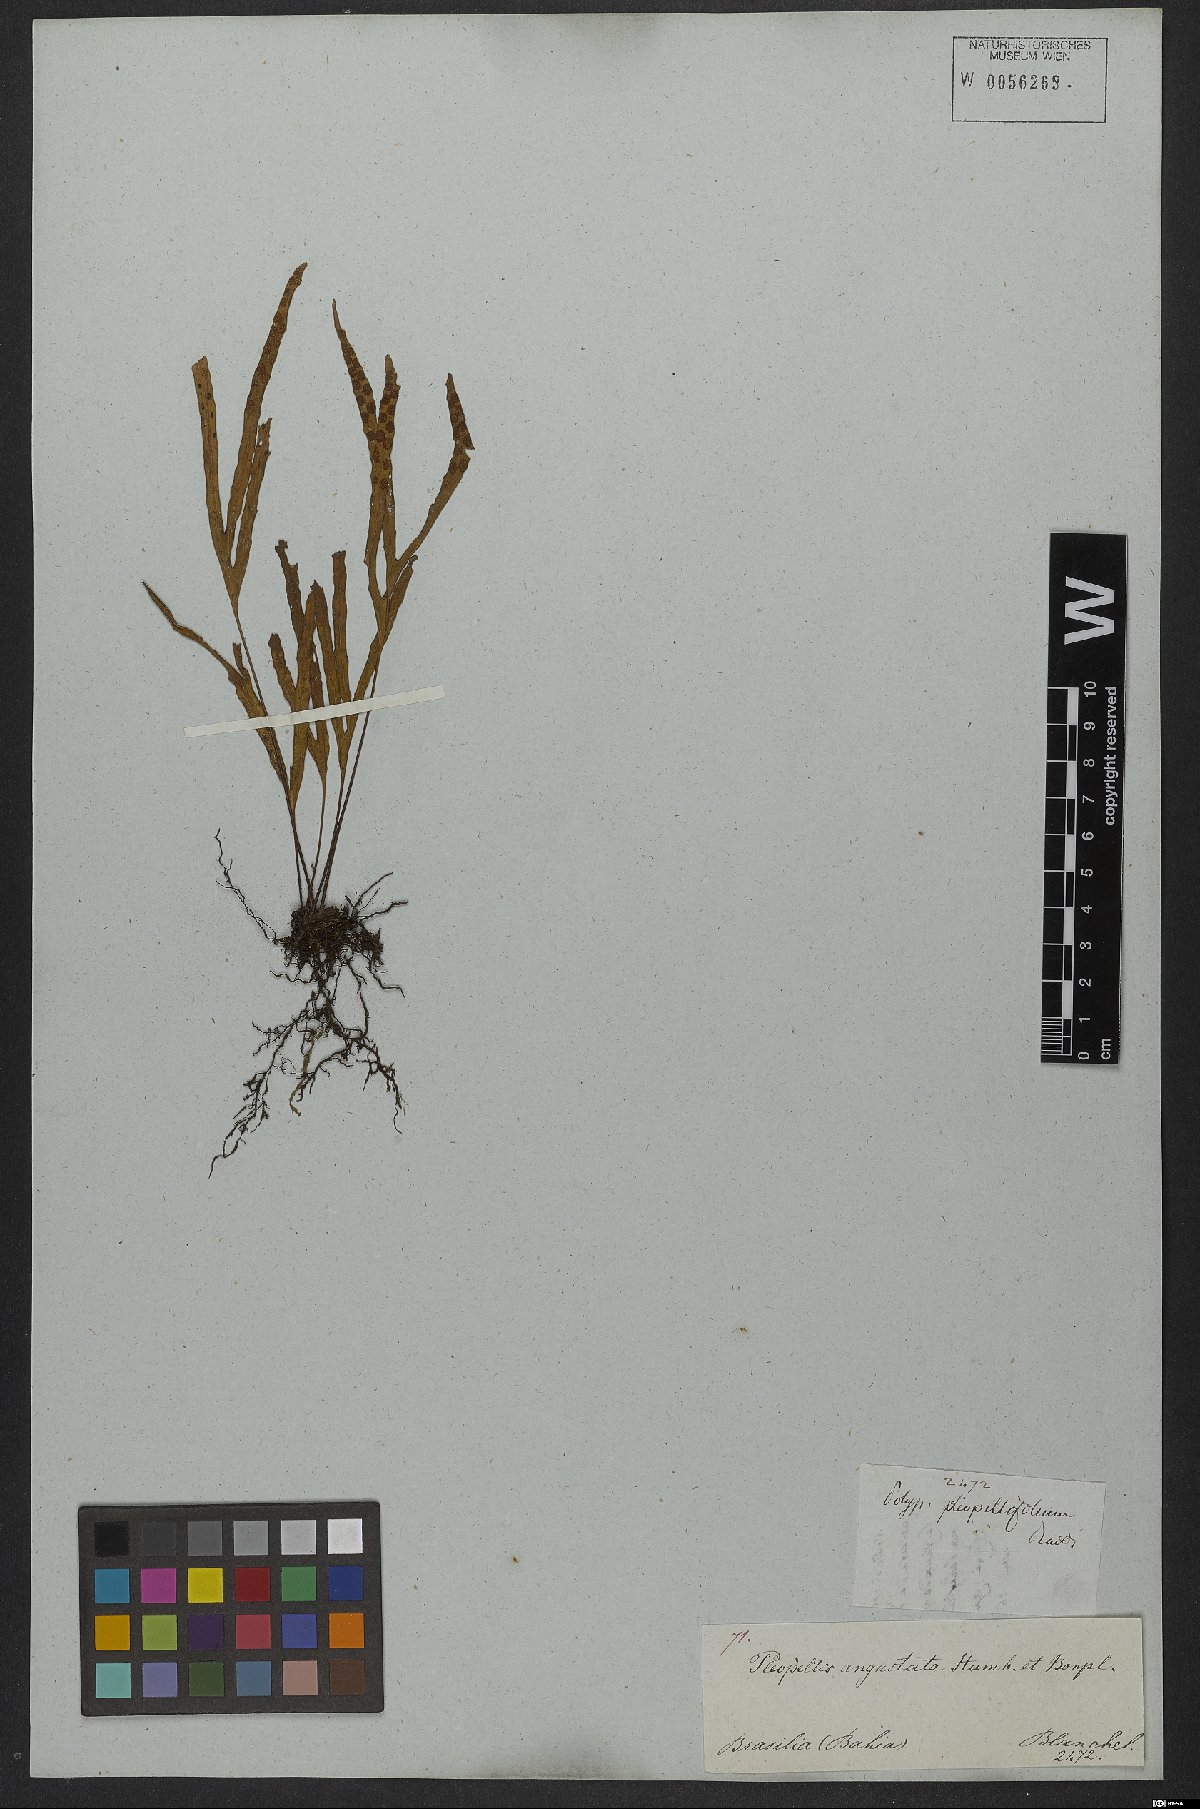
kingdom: Plantae
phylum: Tracheophyta
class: Polypodiopsida
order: Polypodiales
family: Polypodiaceae
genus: Pleopeltis
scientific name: Pleopeltis angusta
